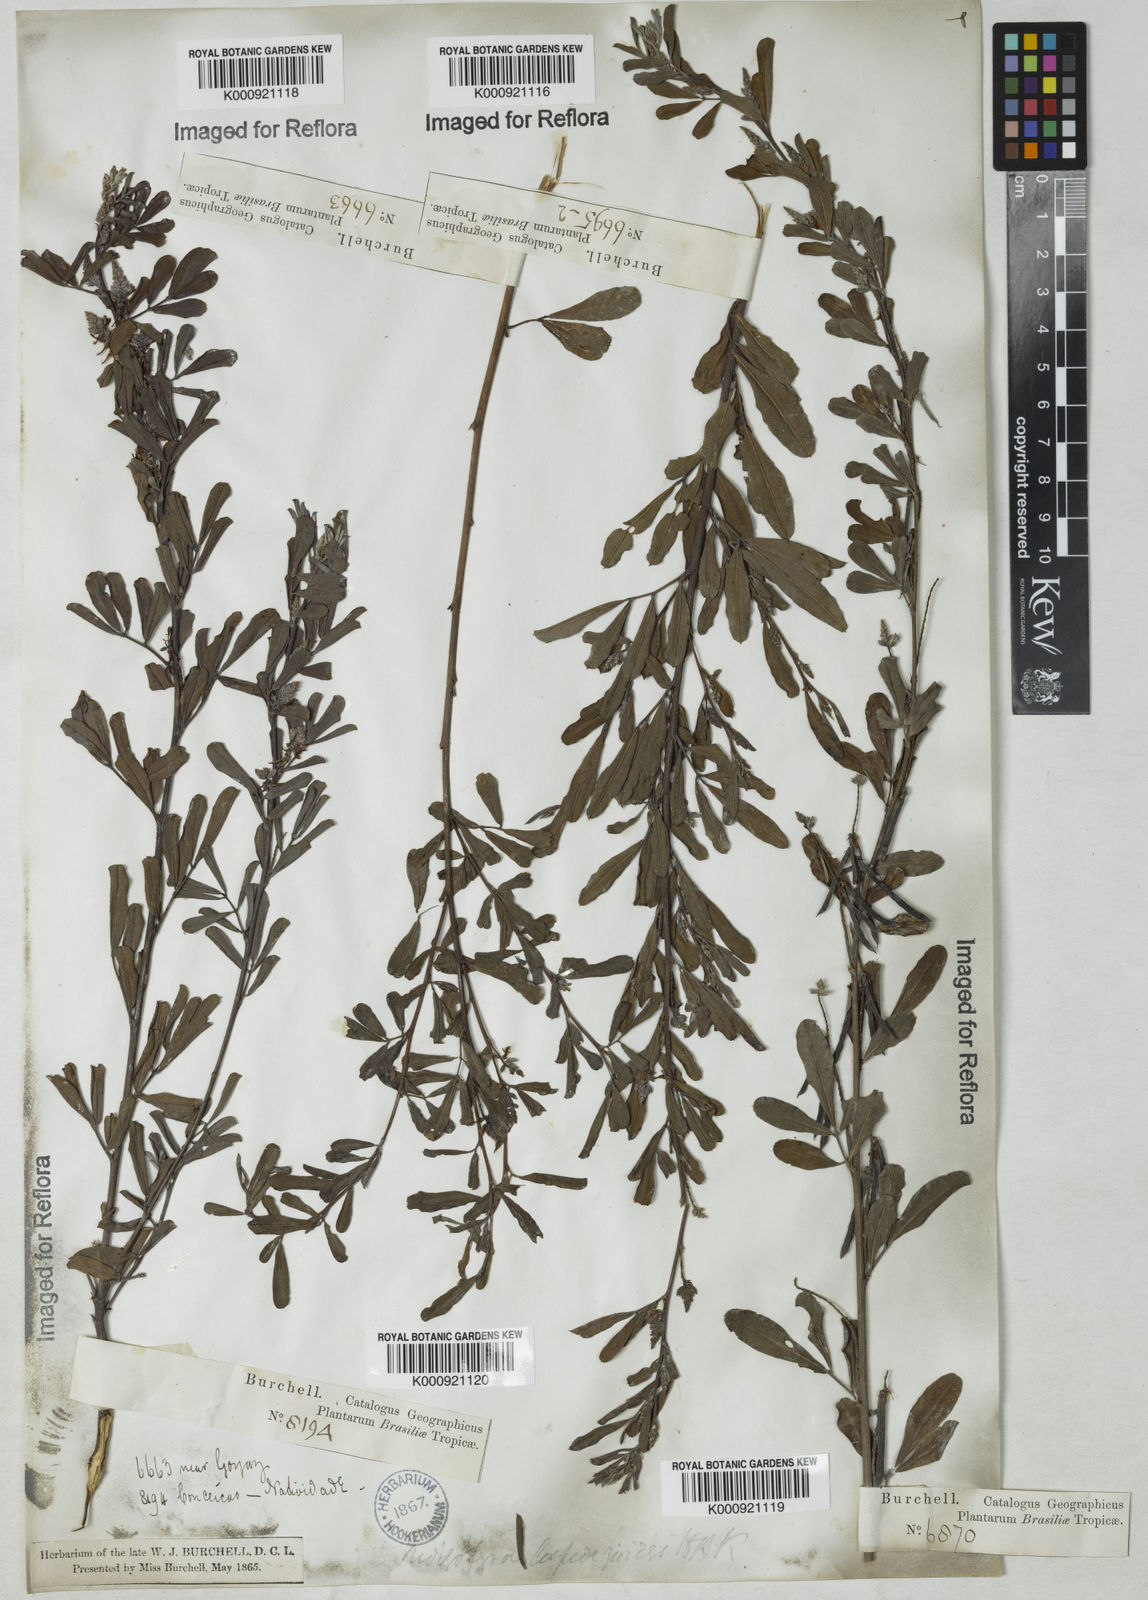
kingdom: Plantae
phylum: Tracheophyta
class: Magnoliopsida
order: Fabales
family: Fabaceae
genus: Indigofera
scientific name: Indigofera lespedezioides
